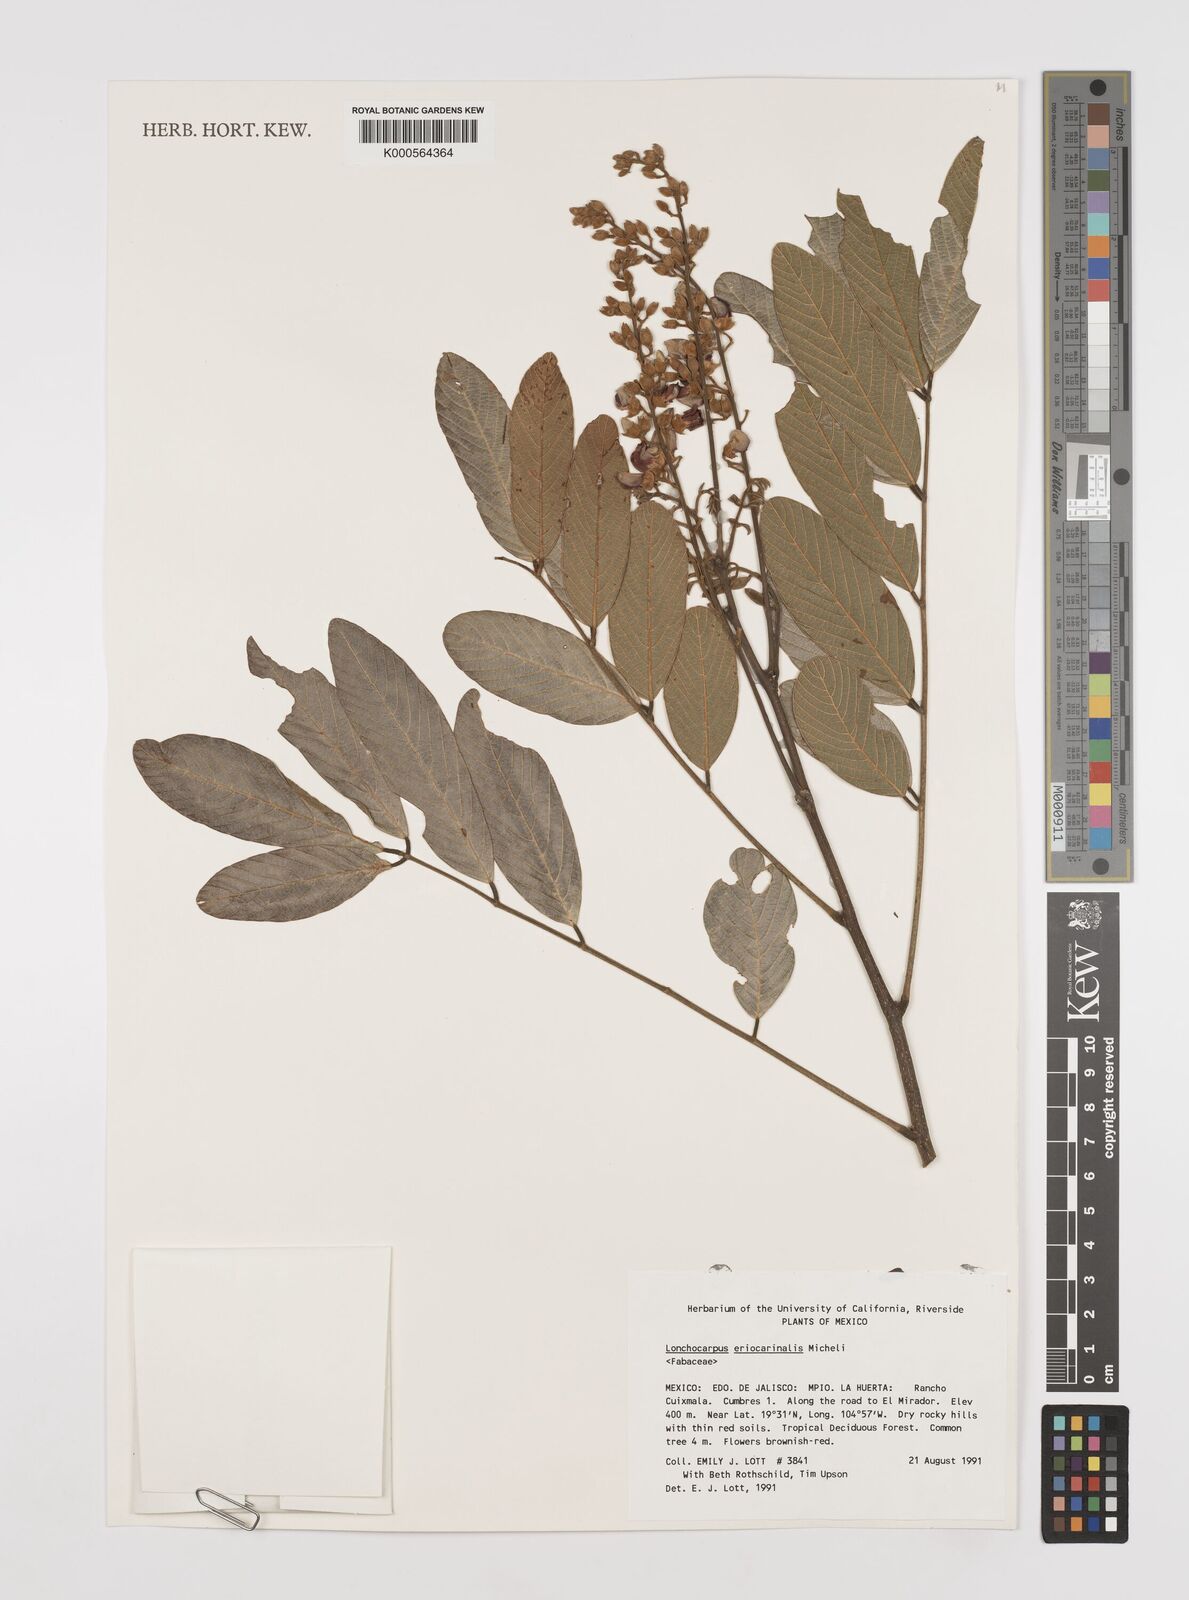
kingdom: Plantae
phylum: Tracheophyta
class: Magnoliopsida
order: Fabales
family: Fabaceae
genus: Lonchocarpus
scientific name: Lonchocarpus eriocarinalis
